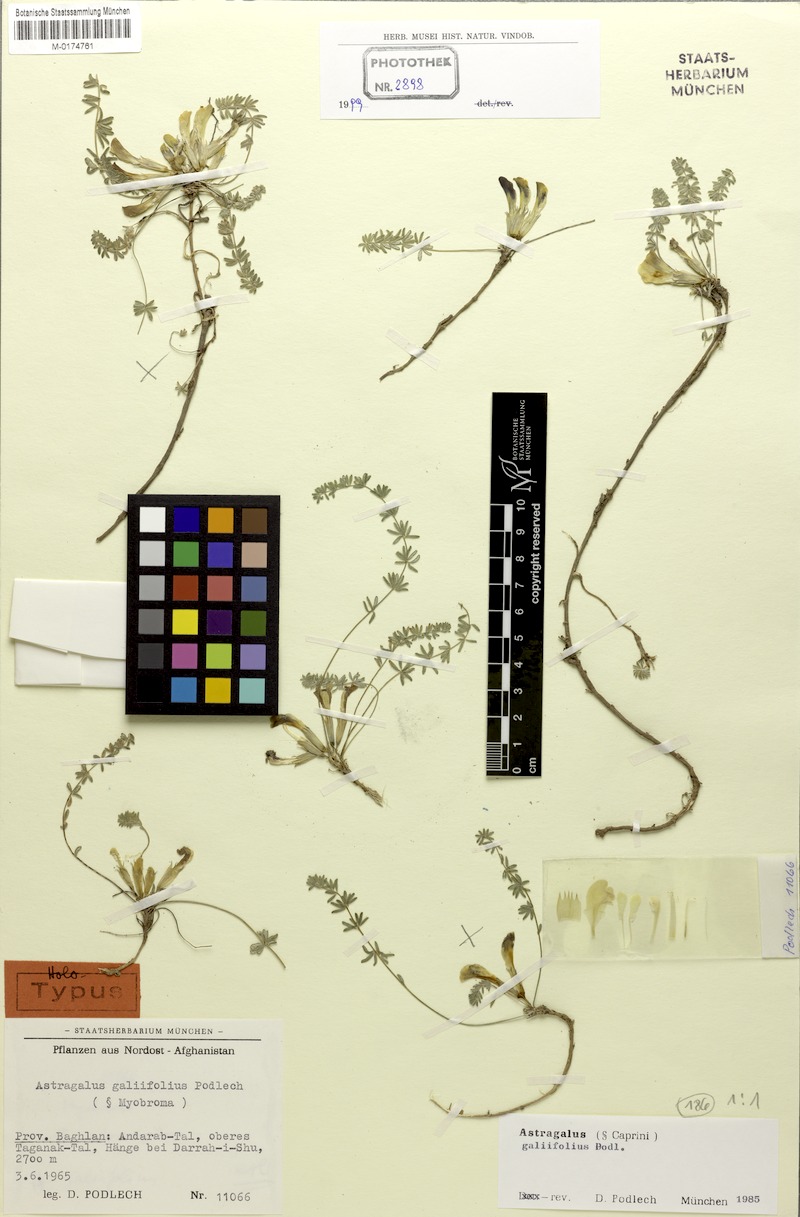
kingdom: Plantae
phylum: Tracheophyta
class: Magnoliopsida
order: Fabales
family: Fabaceae
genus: Astragalus
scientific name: Astragalus galiifolius
